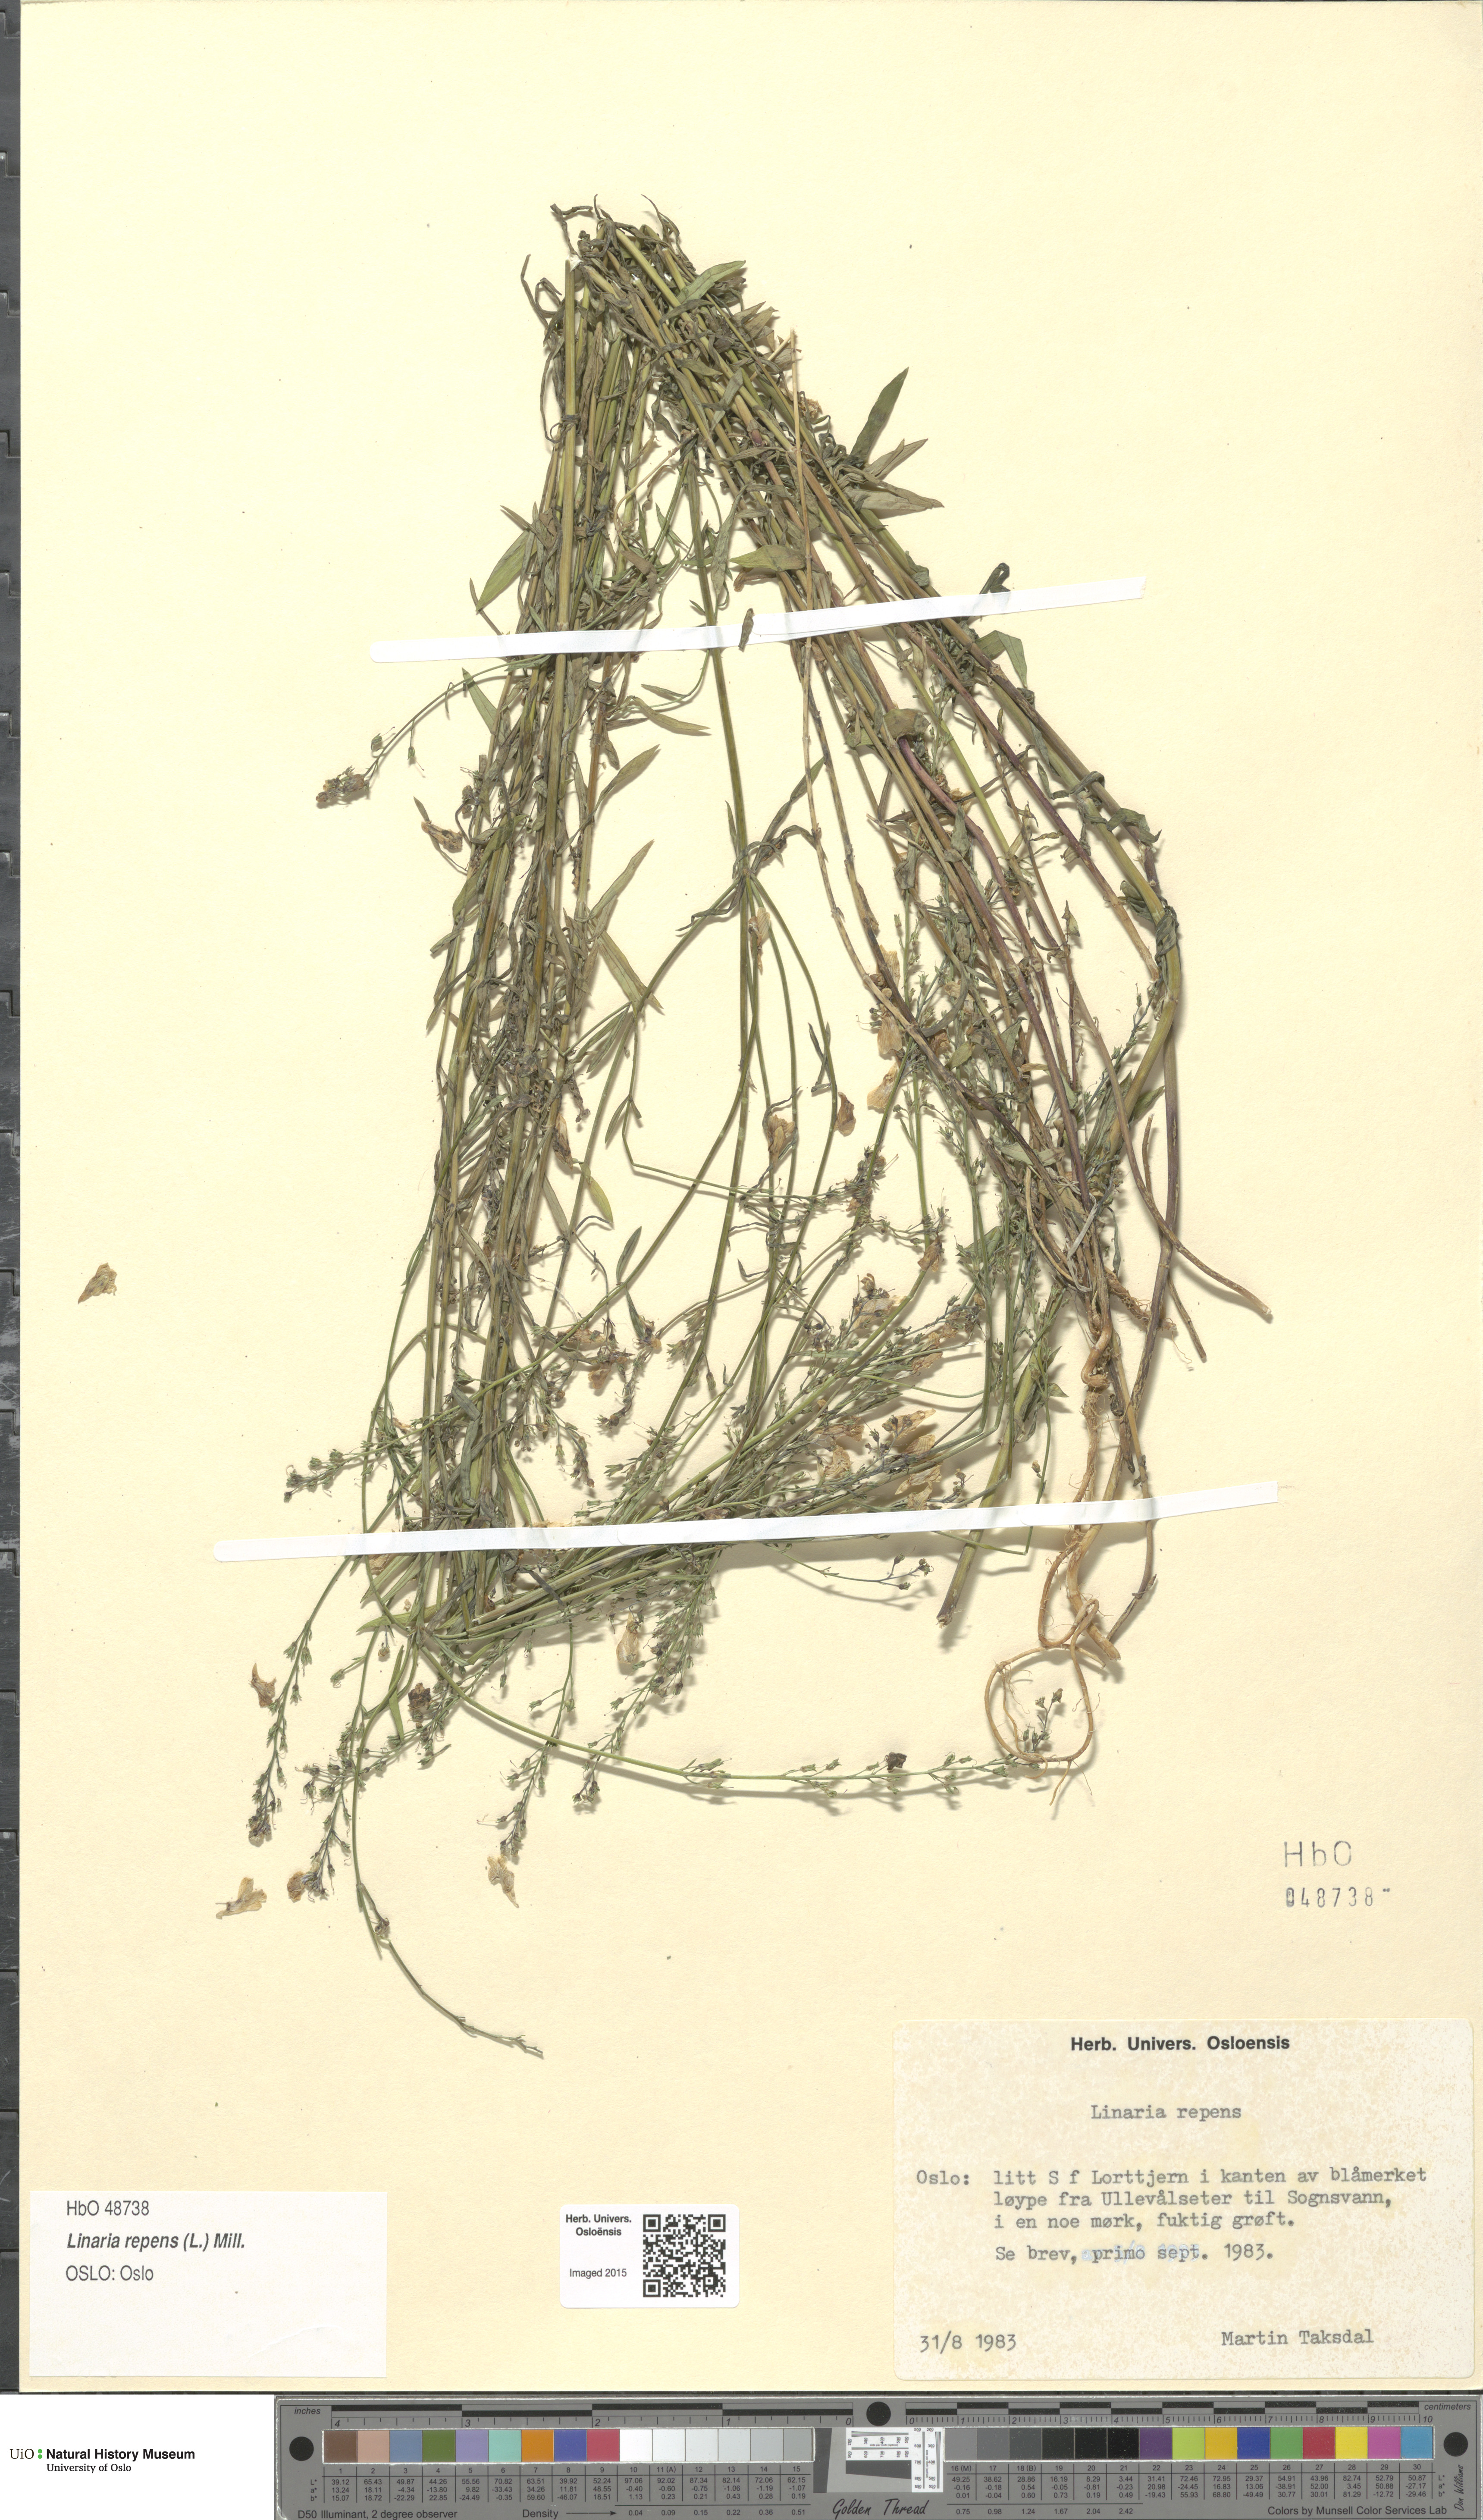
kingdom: Plantae
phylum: Tracheophyta
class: Magnoliopsida
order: Lamiales
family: Plantaginaceae
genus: Linaria
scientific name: Linaria repens
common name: Pale toadflax
